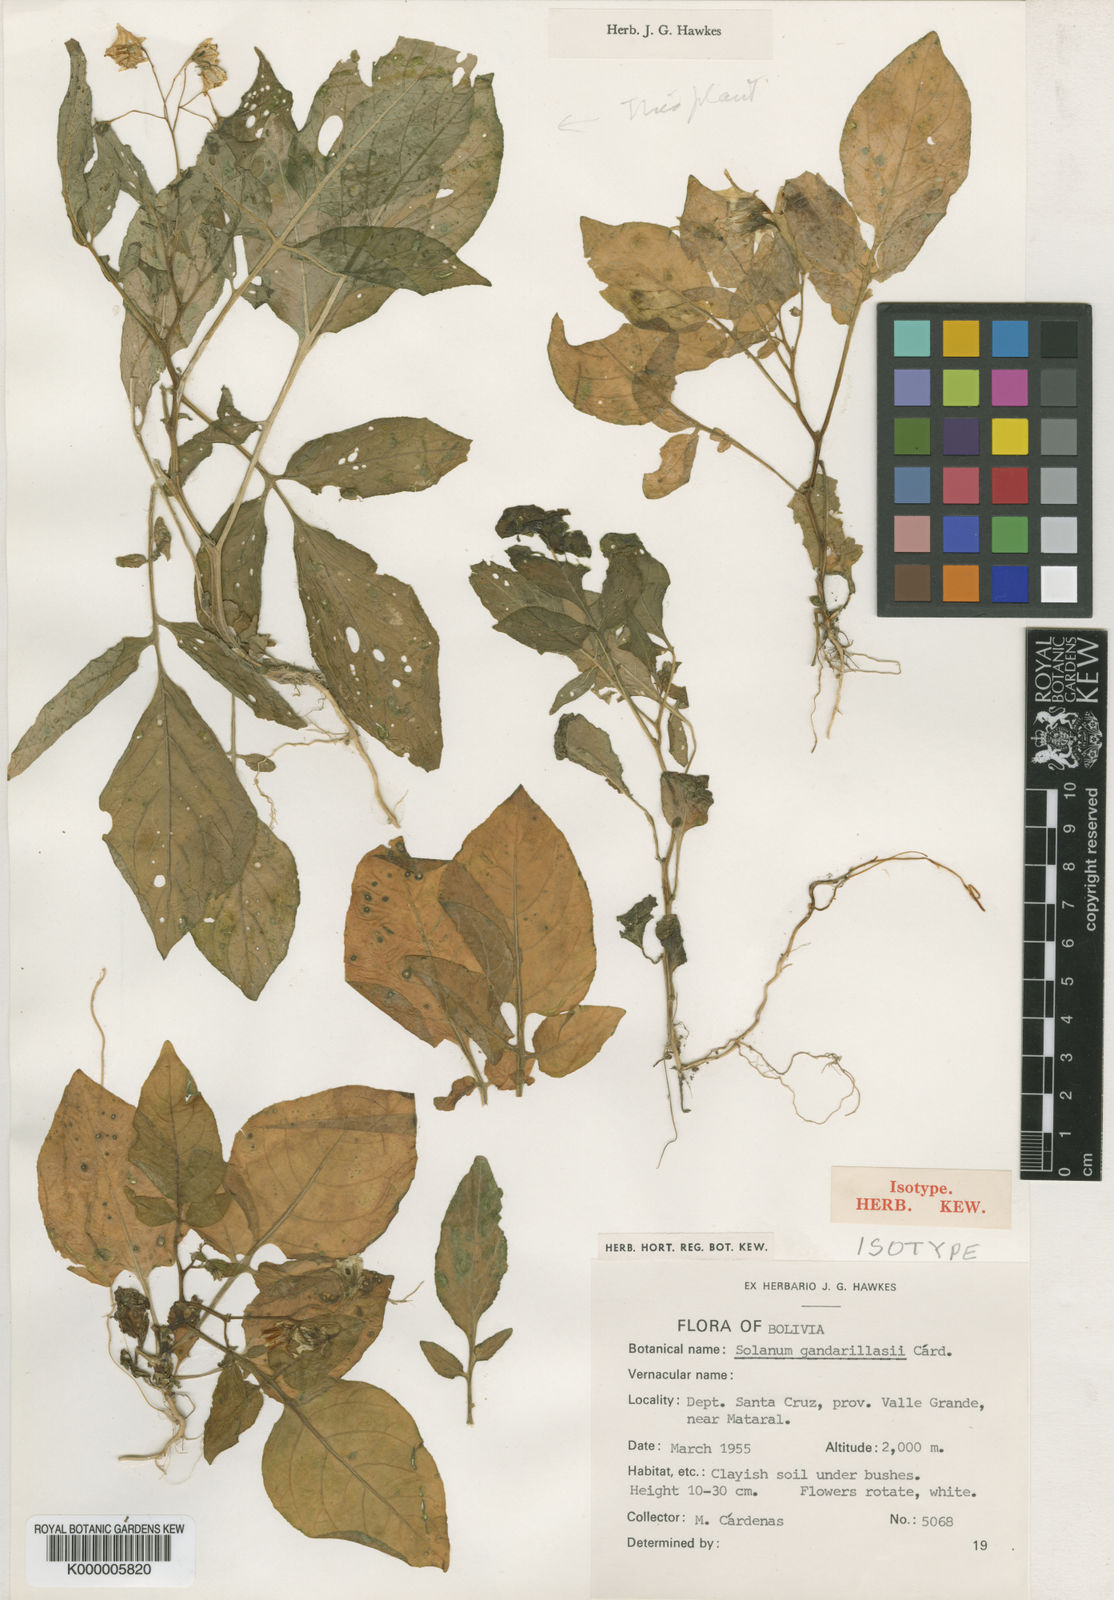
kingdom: Plantae
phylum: Tracheophyta
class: Magnoliopsida
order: Solanales
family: Solanaceae
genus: Solanum
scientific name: Solanum
